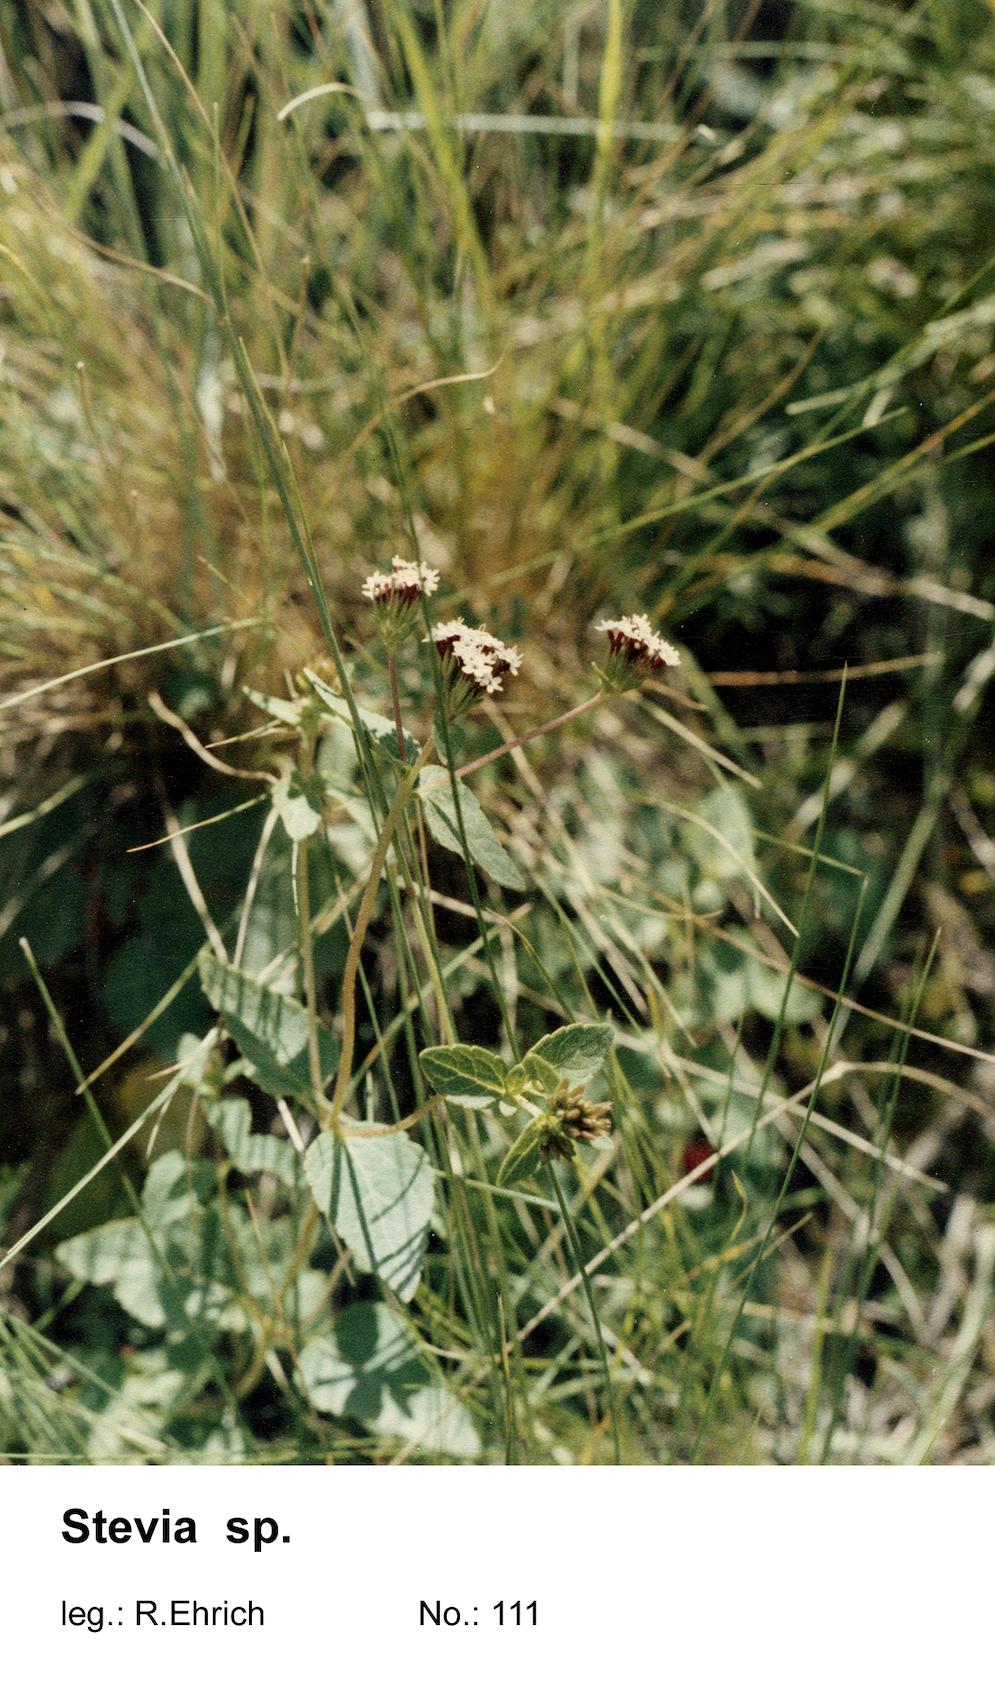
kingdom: Plantae
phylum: Tracheophyta
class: Magnoliopsida
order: Asterales
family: Asteraceae
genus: Stevia
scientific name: Stevia
